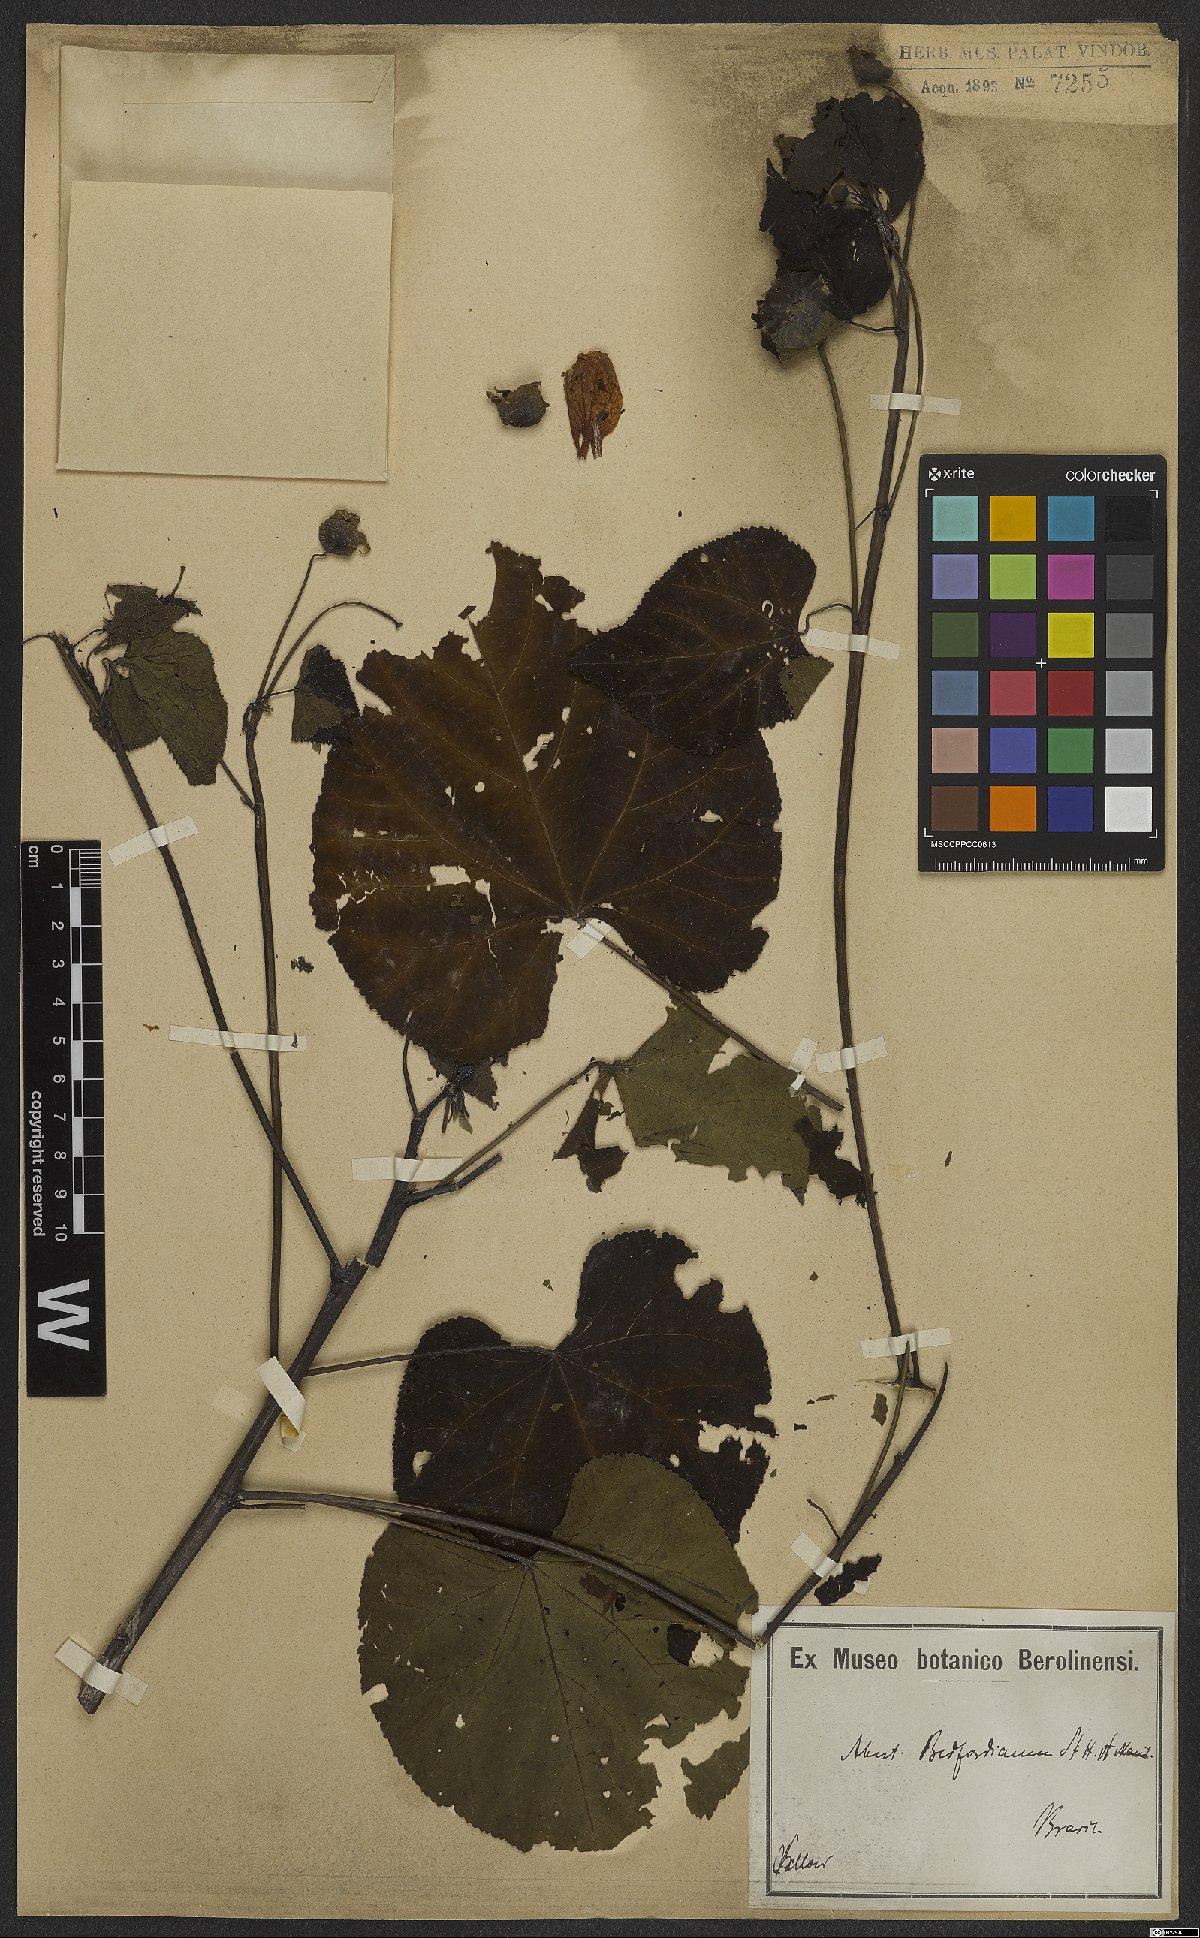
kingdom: Plantae
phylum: Tracheophyta
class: Magnoliopsida
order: Malvales
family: Malvaceae
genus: Callianthe
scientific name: Callianthe bedfordiana
